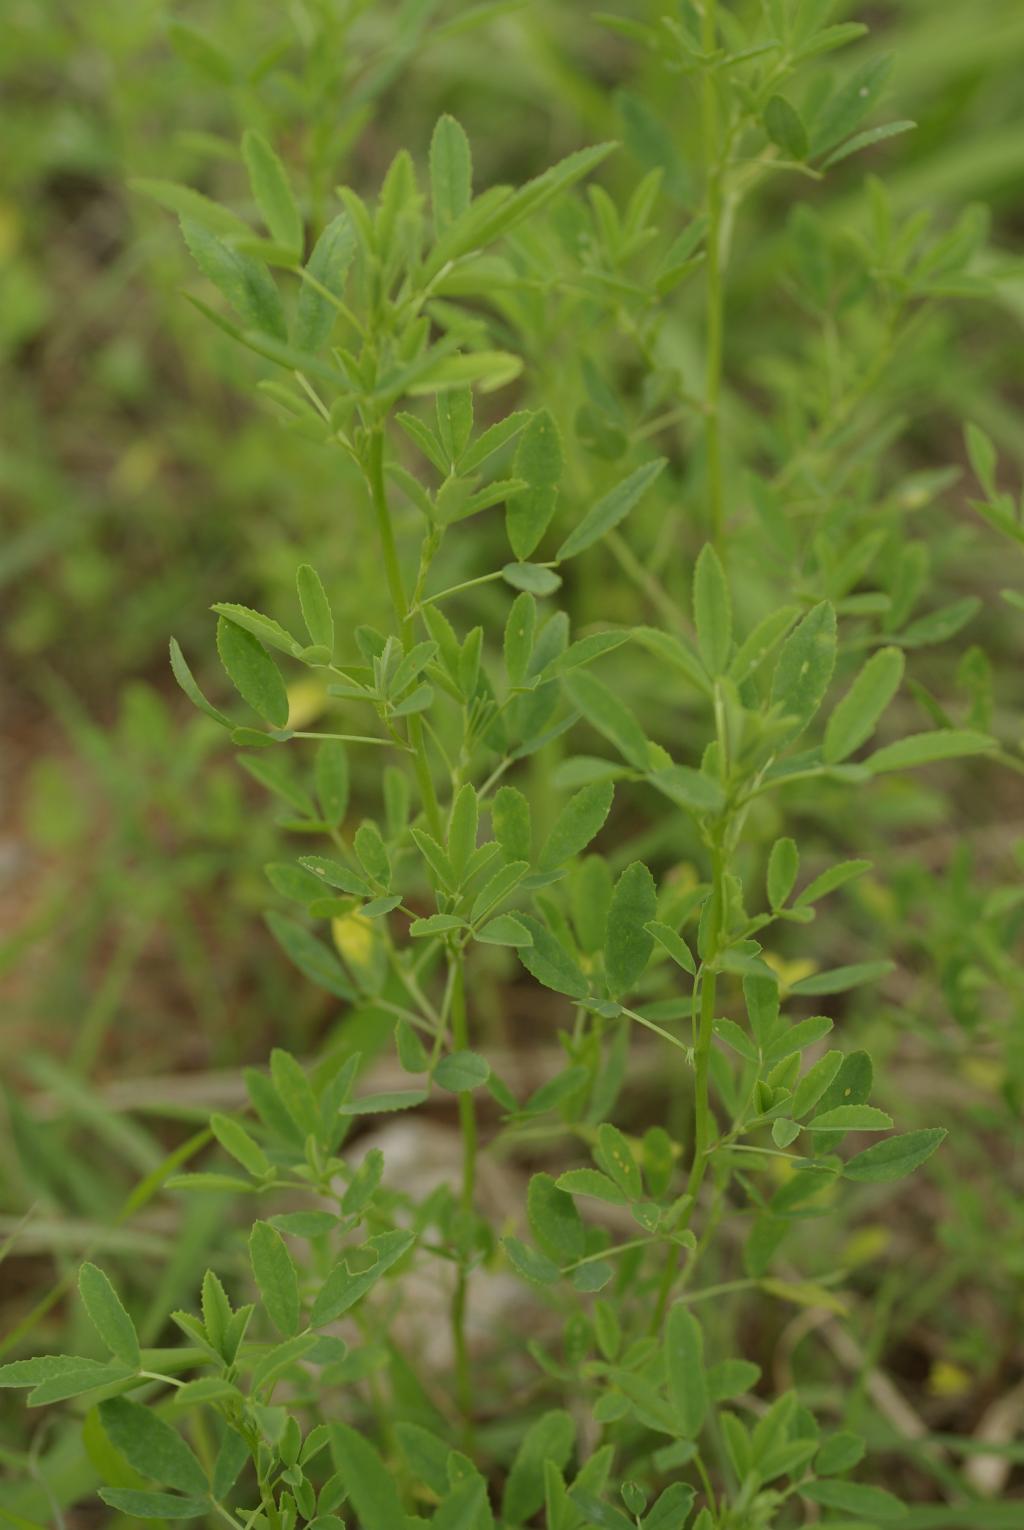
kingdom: Plantae
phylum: Tracheophyta
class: Magnoliopsida
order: Fabales
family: Fabaceae
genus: Melilotus
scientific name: Melilotus indicus
